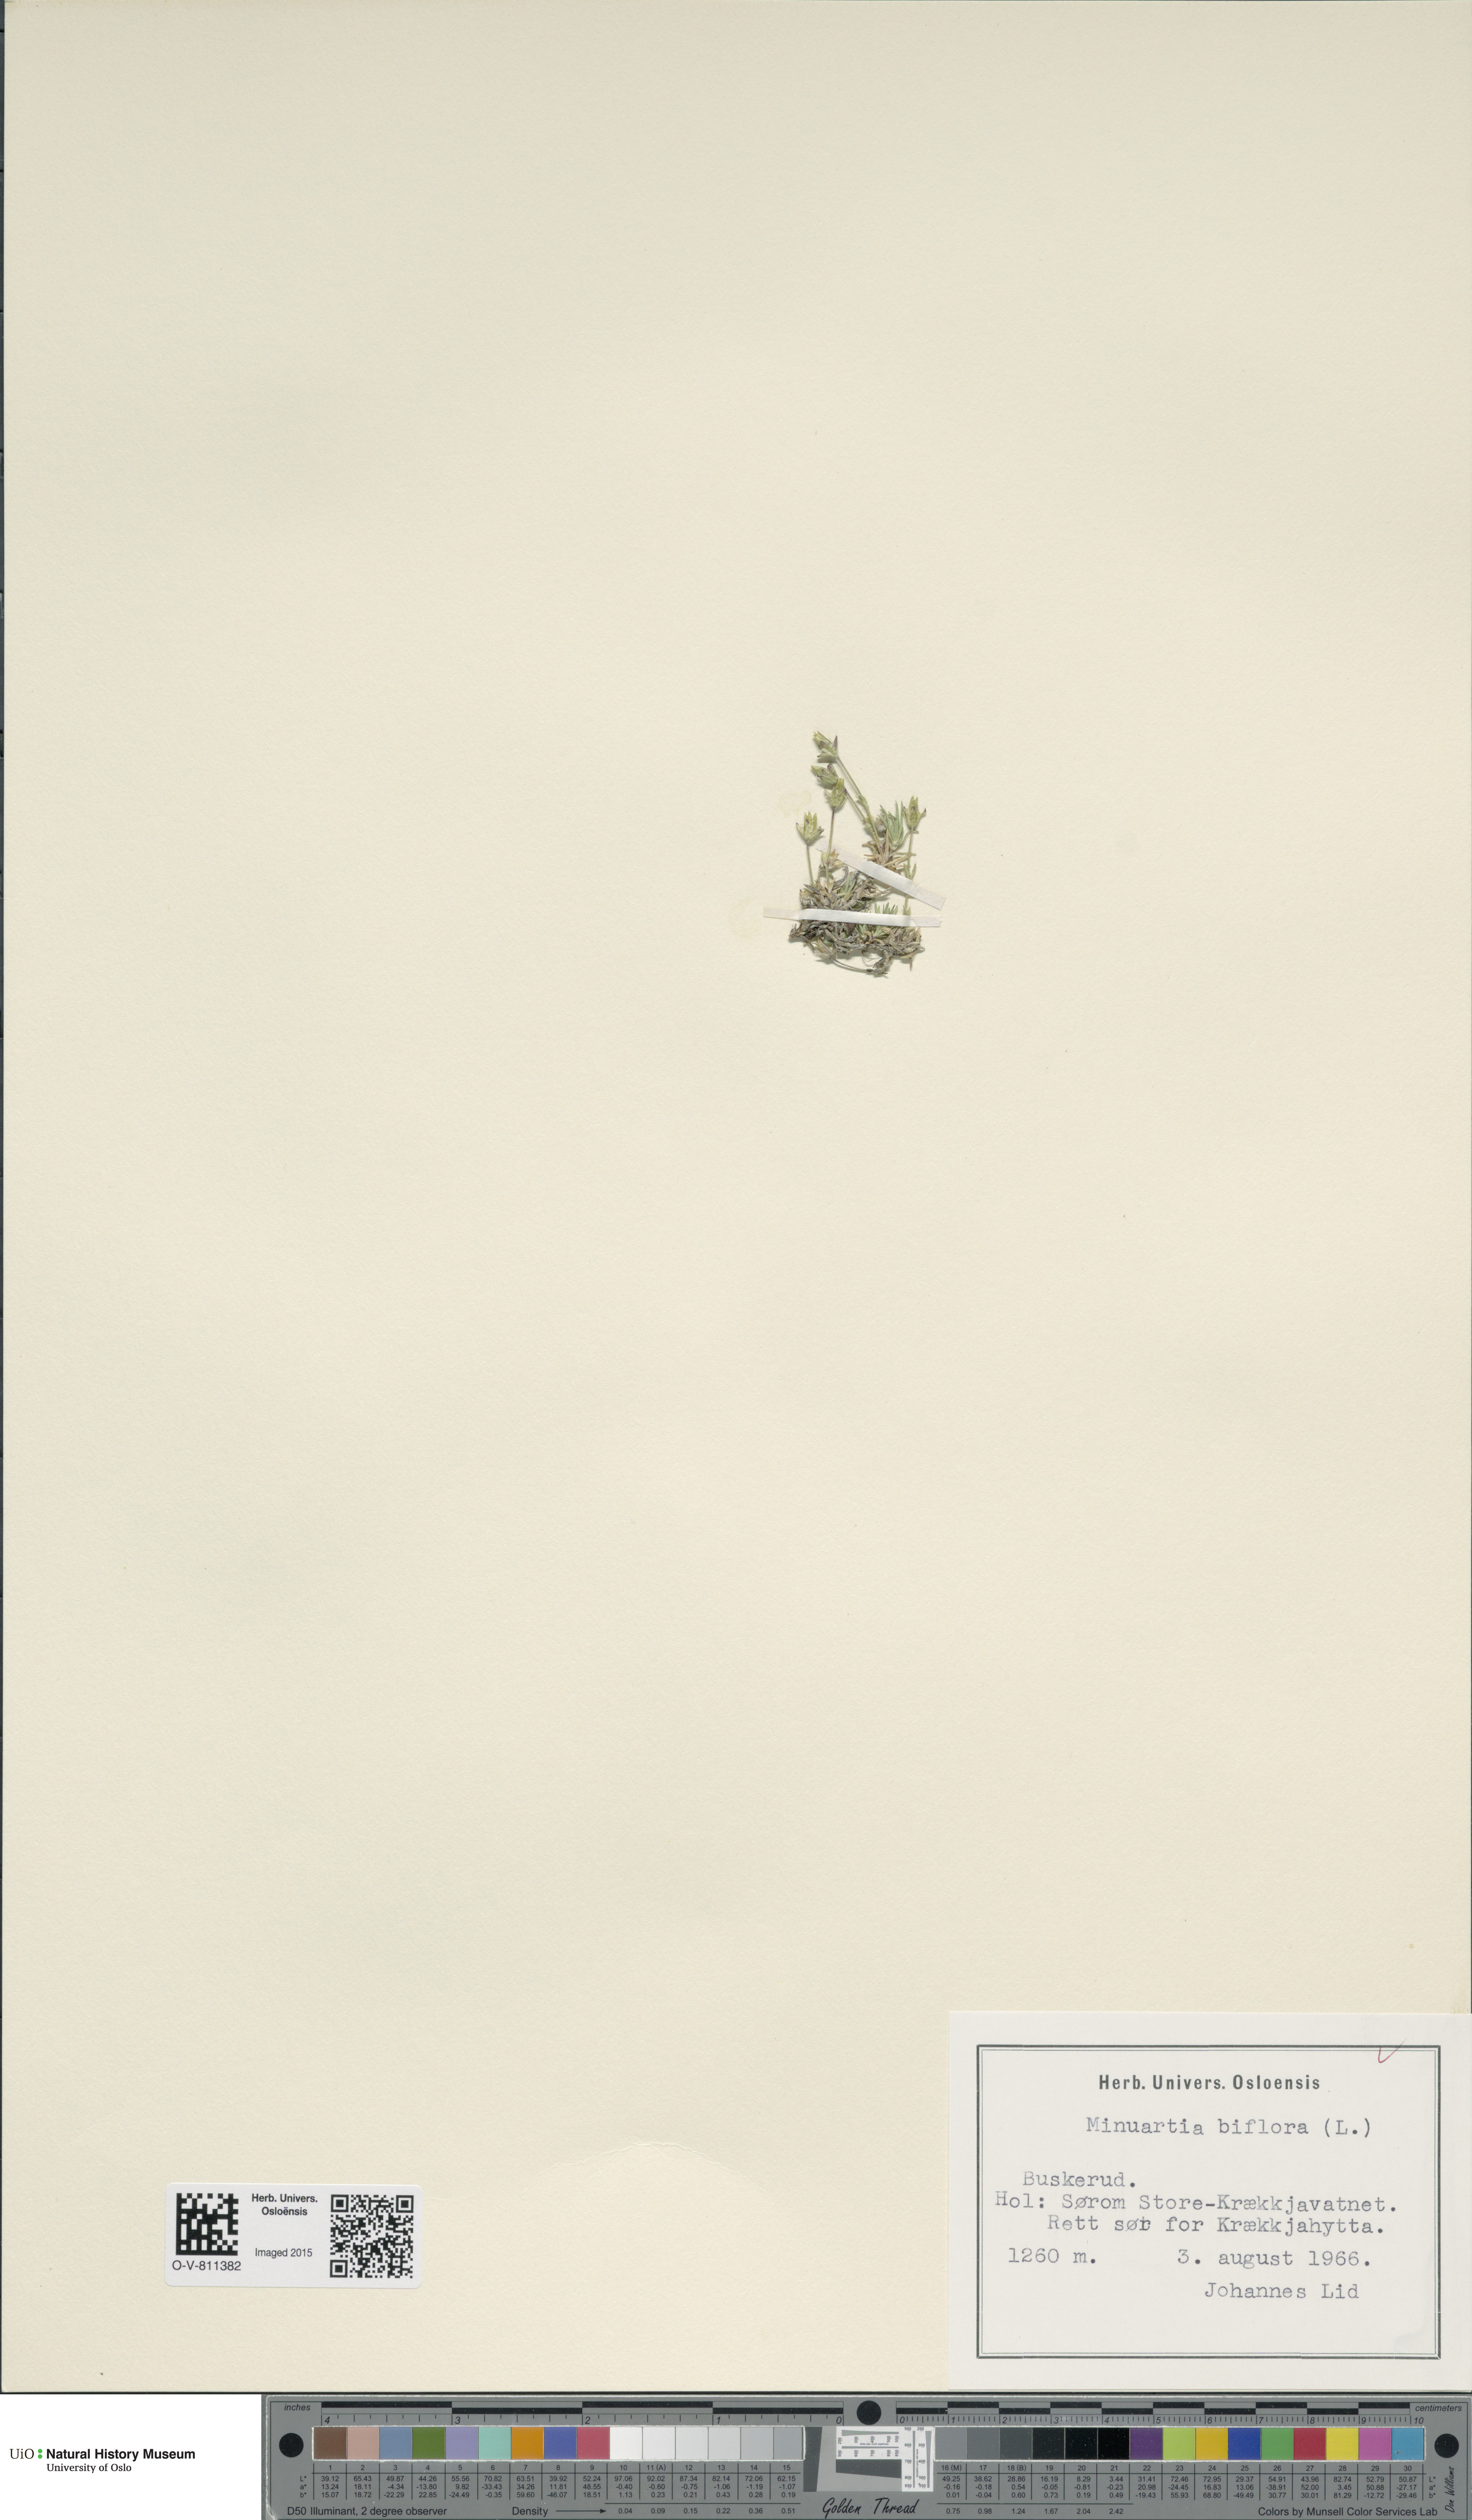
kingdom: Plantae
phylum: Tracheophyta
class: Magnoliopsida
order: Caryophyllales
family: Caryophyllaceae
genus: Cherleria
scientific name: Cherleria biflora
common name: Mountain sandwort
